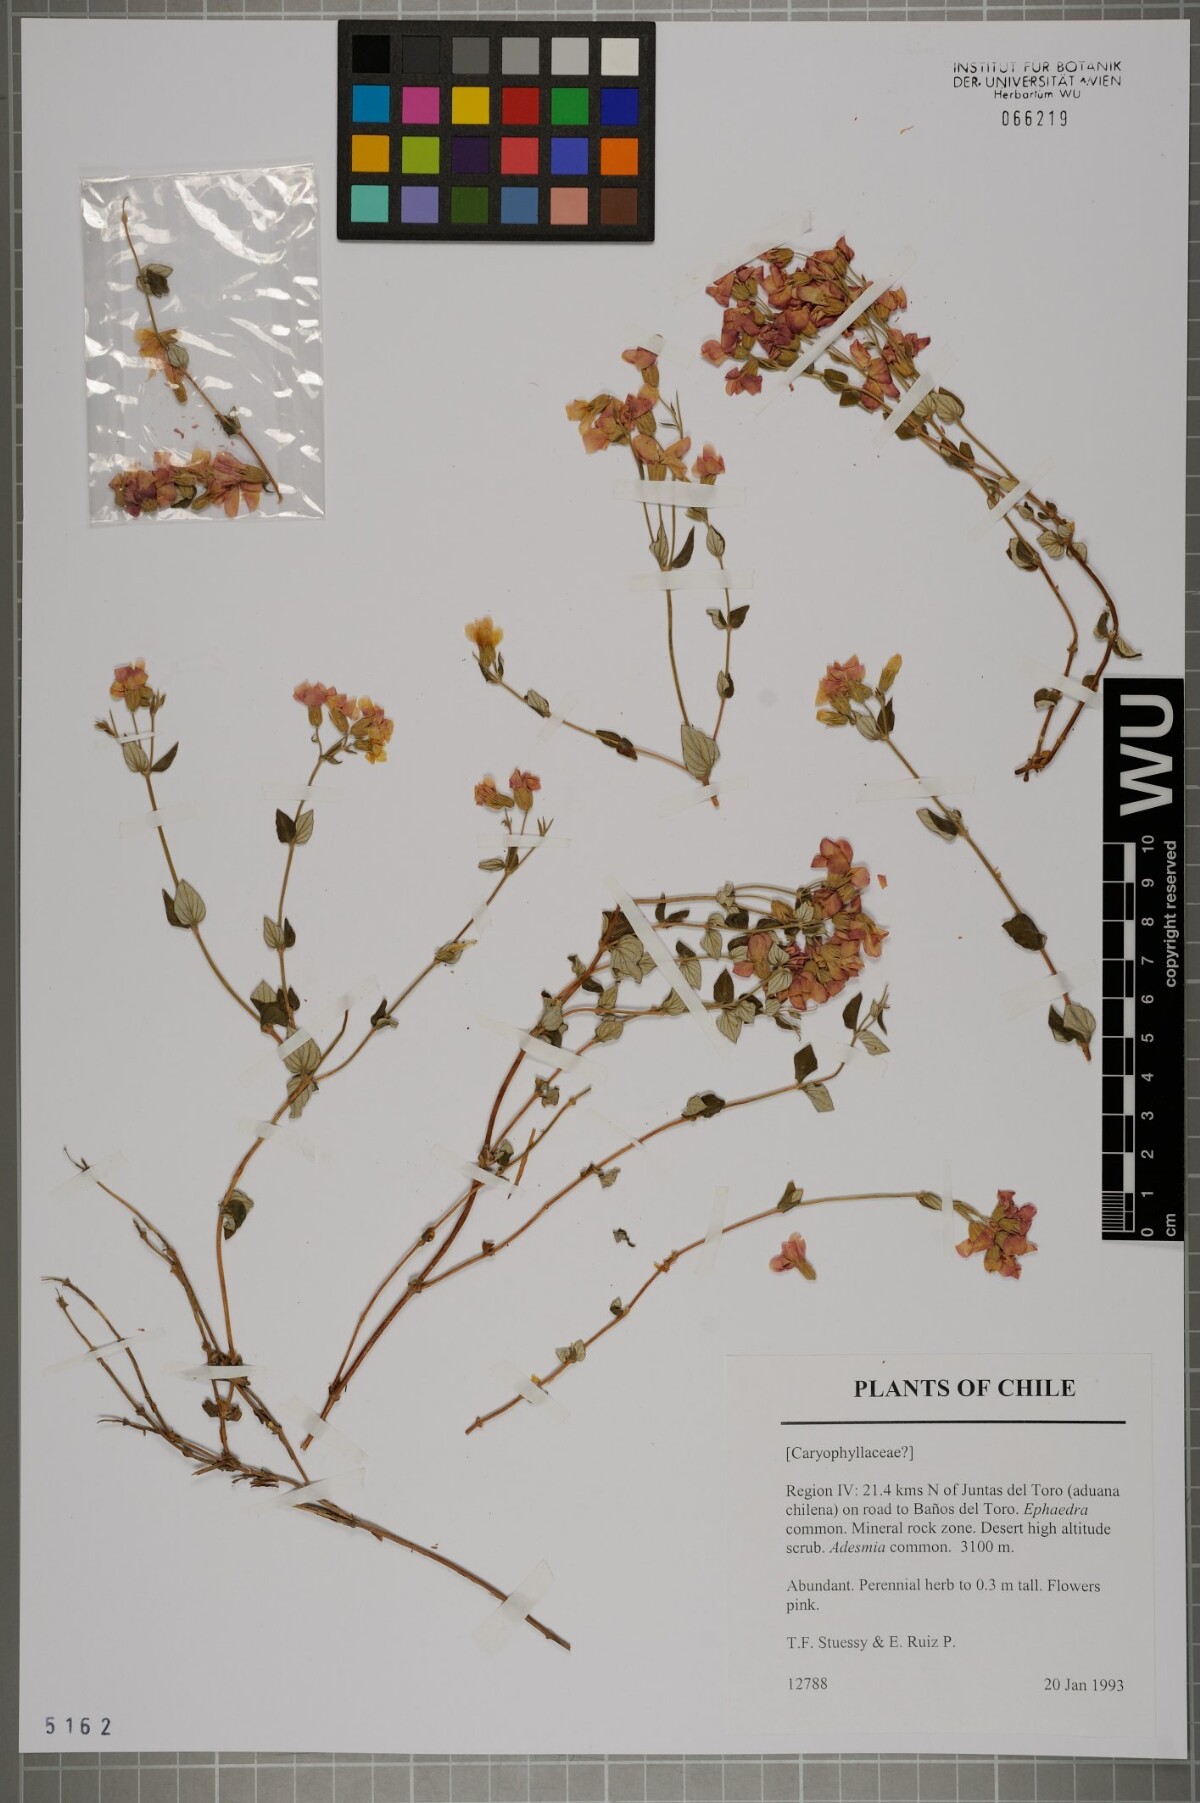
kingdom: Plantae
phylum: Tracheophyta
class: Magnoliopsida
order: Caryophyllales
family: Caryophyllaceae
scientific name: Caryophyllaceae
